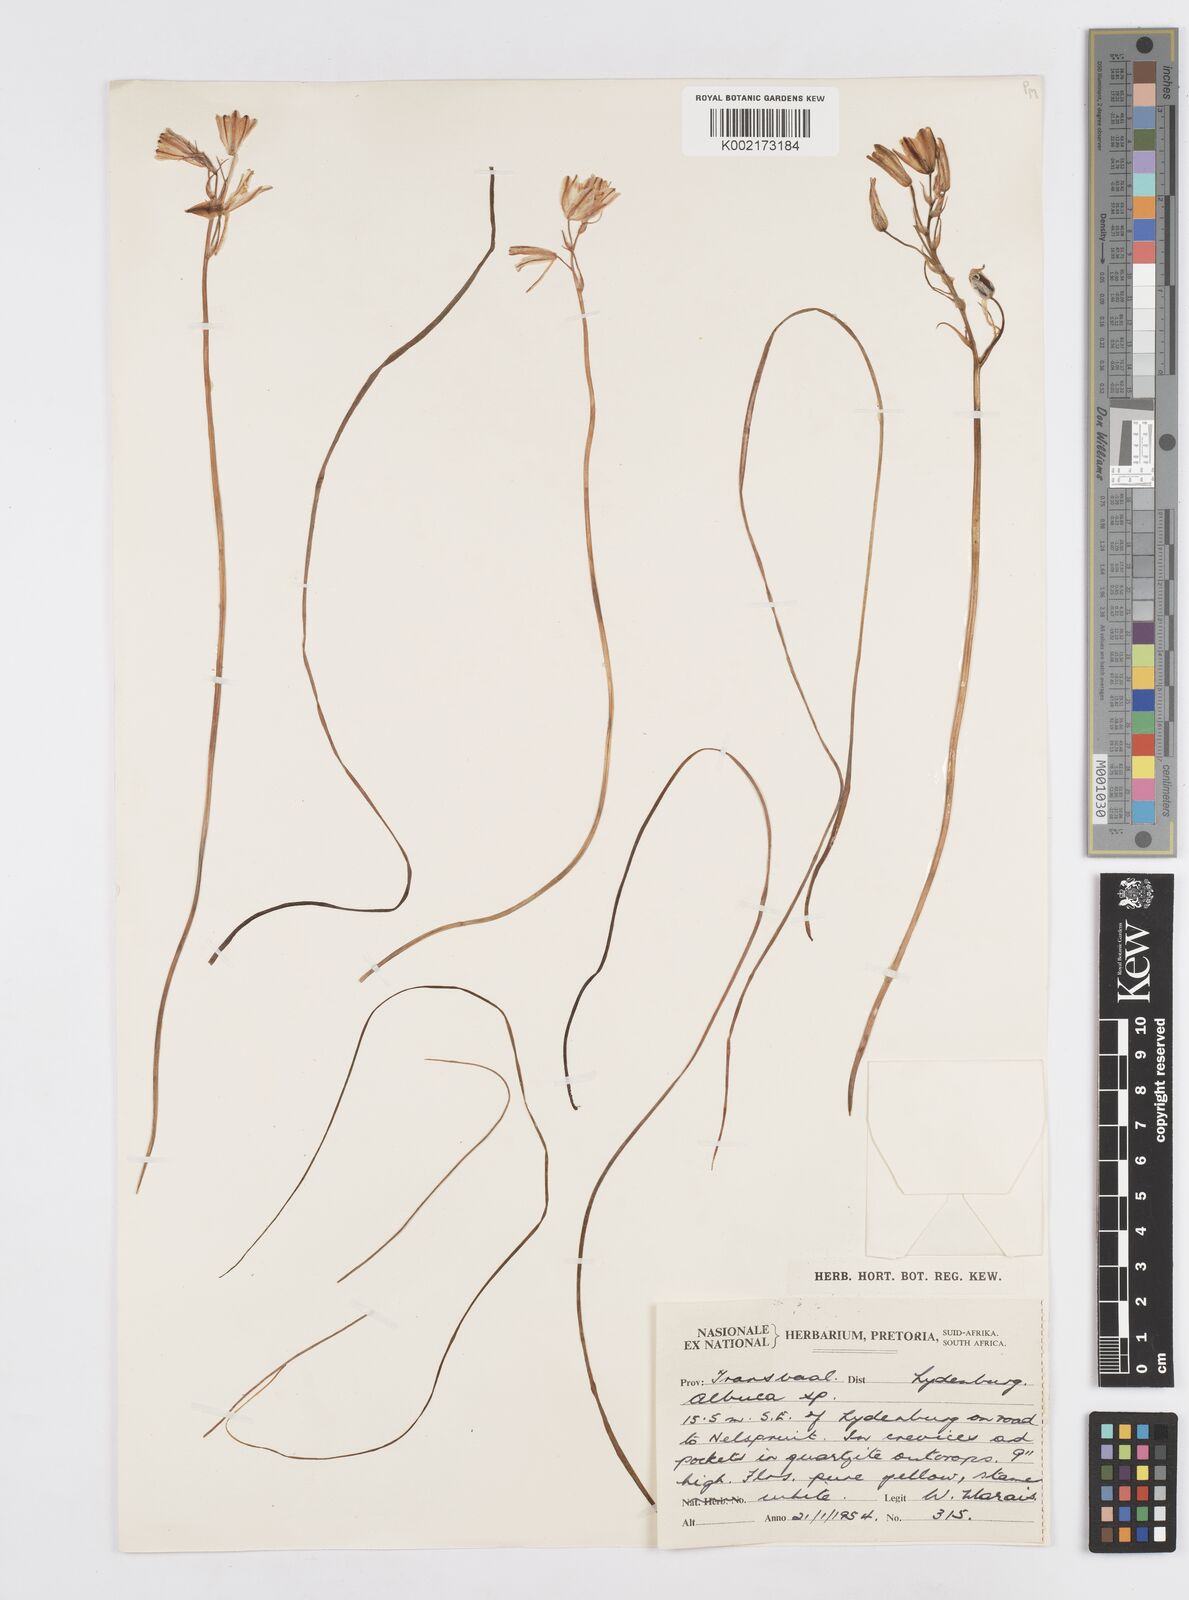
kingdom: Plantae
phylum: Tracheophyta
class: Liliopsida
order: Asparagales
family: Asparagaceae
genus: Albuca
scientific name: Albuca
